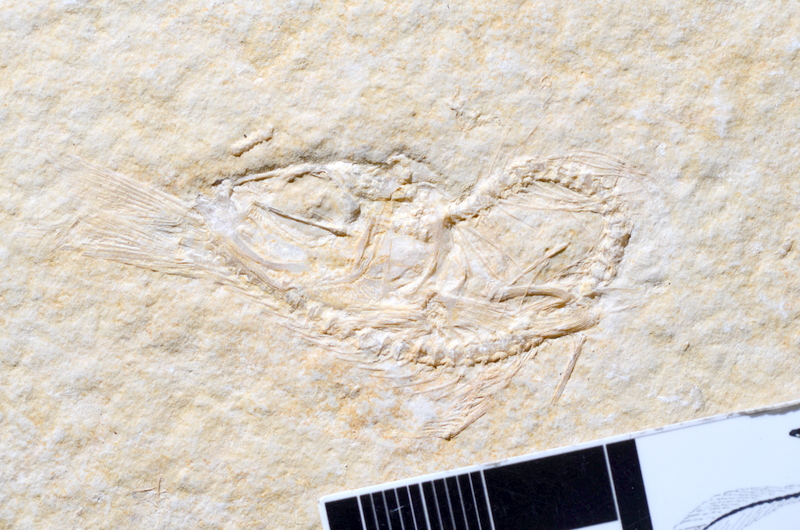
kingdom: Animalia
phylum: Chordata
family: Ascalaboidae
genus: Tharsis
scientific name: Tharsis dubius
